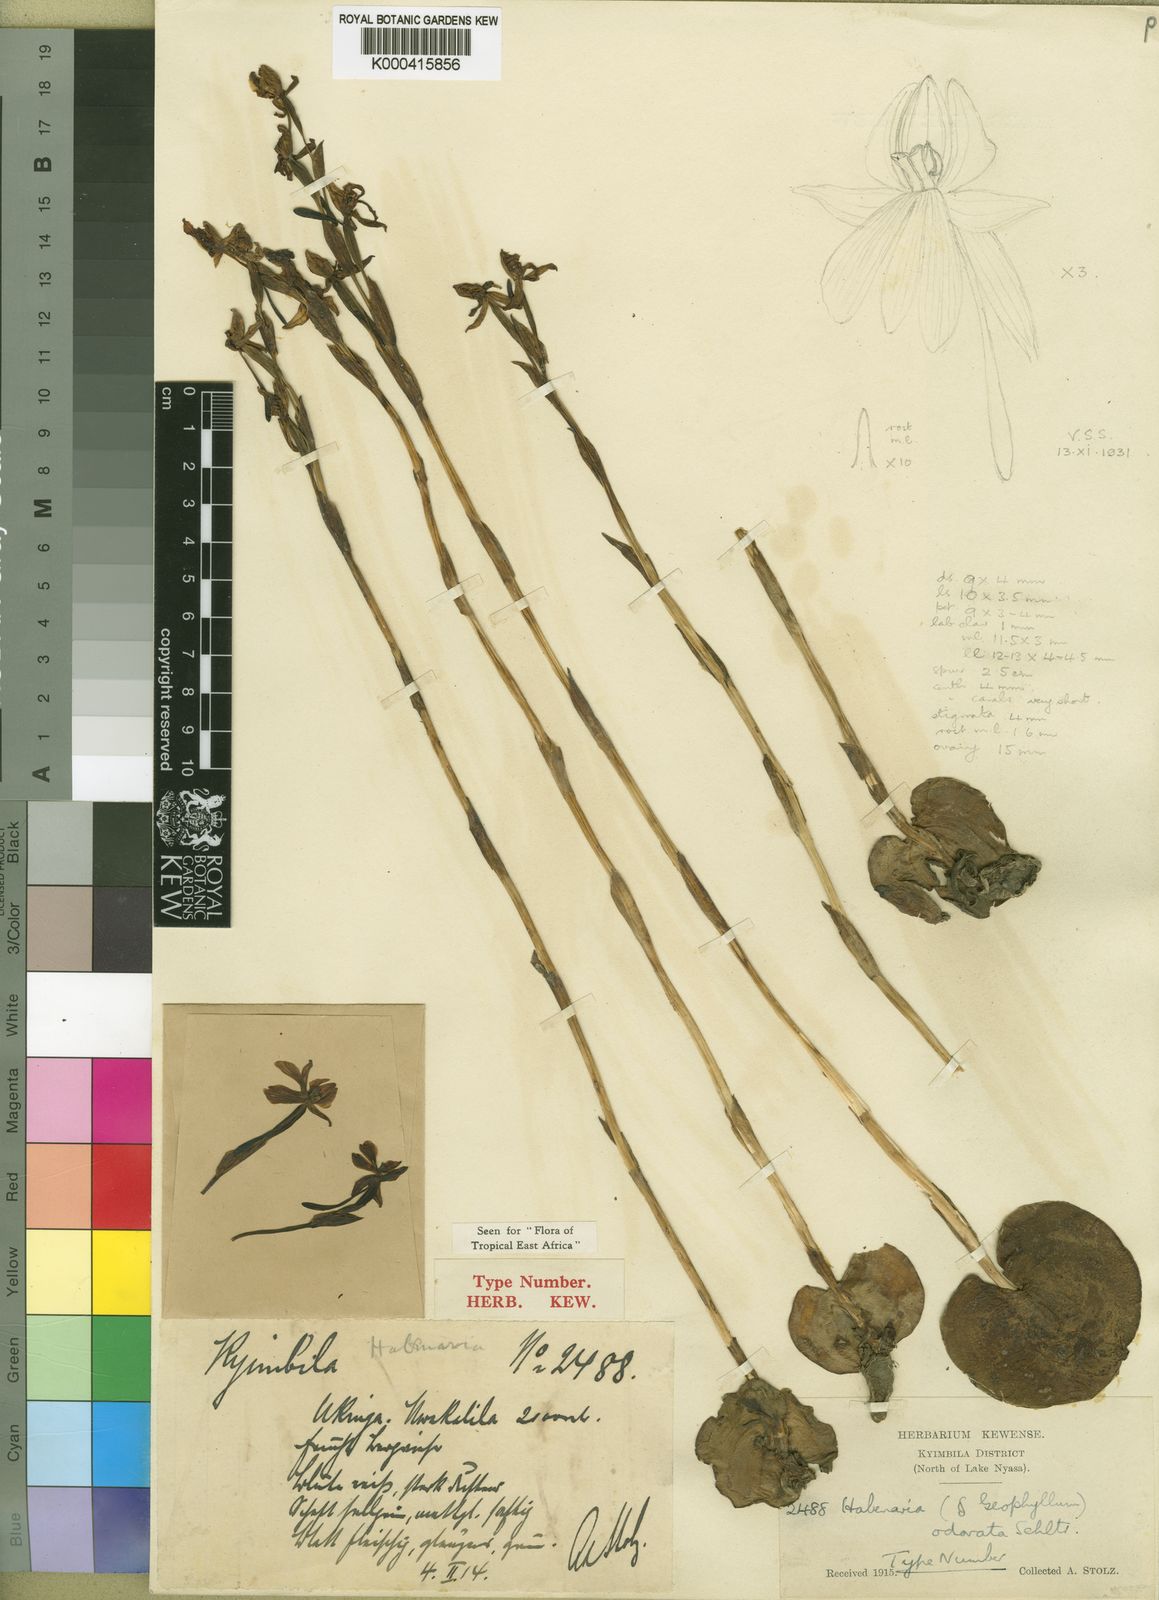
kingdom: Plantae
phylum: Tracheophyta
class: Liliopsida
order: Asparagales
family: Orchidaceae
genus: Habenaria
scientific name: Habenaria odorata
